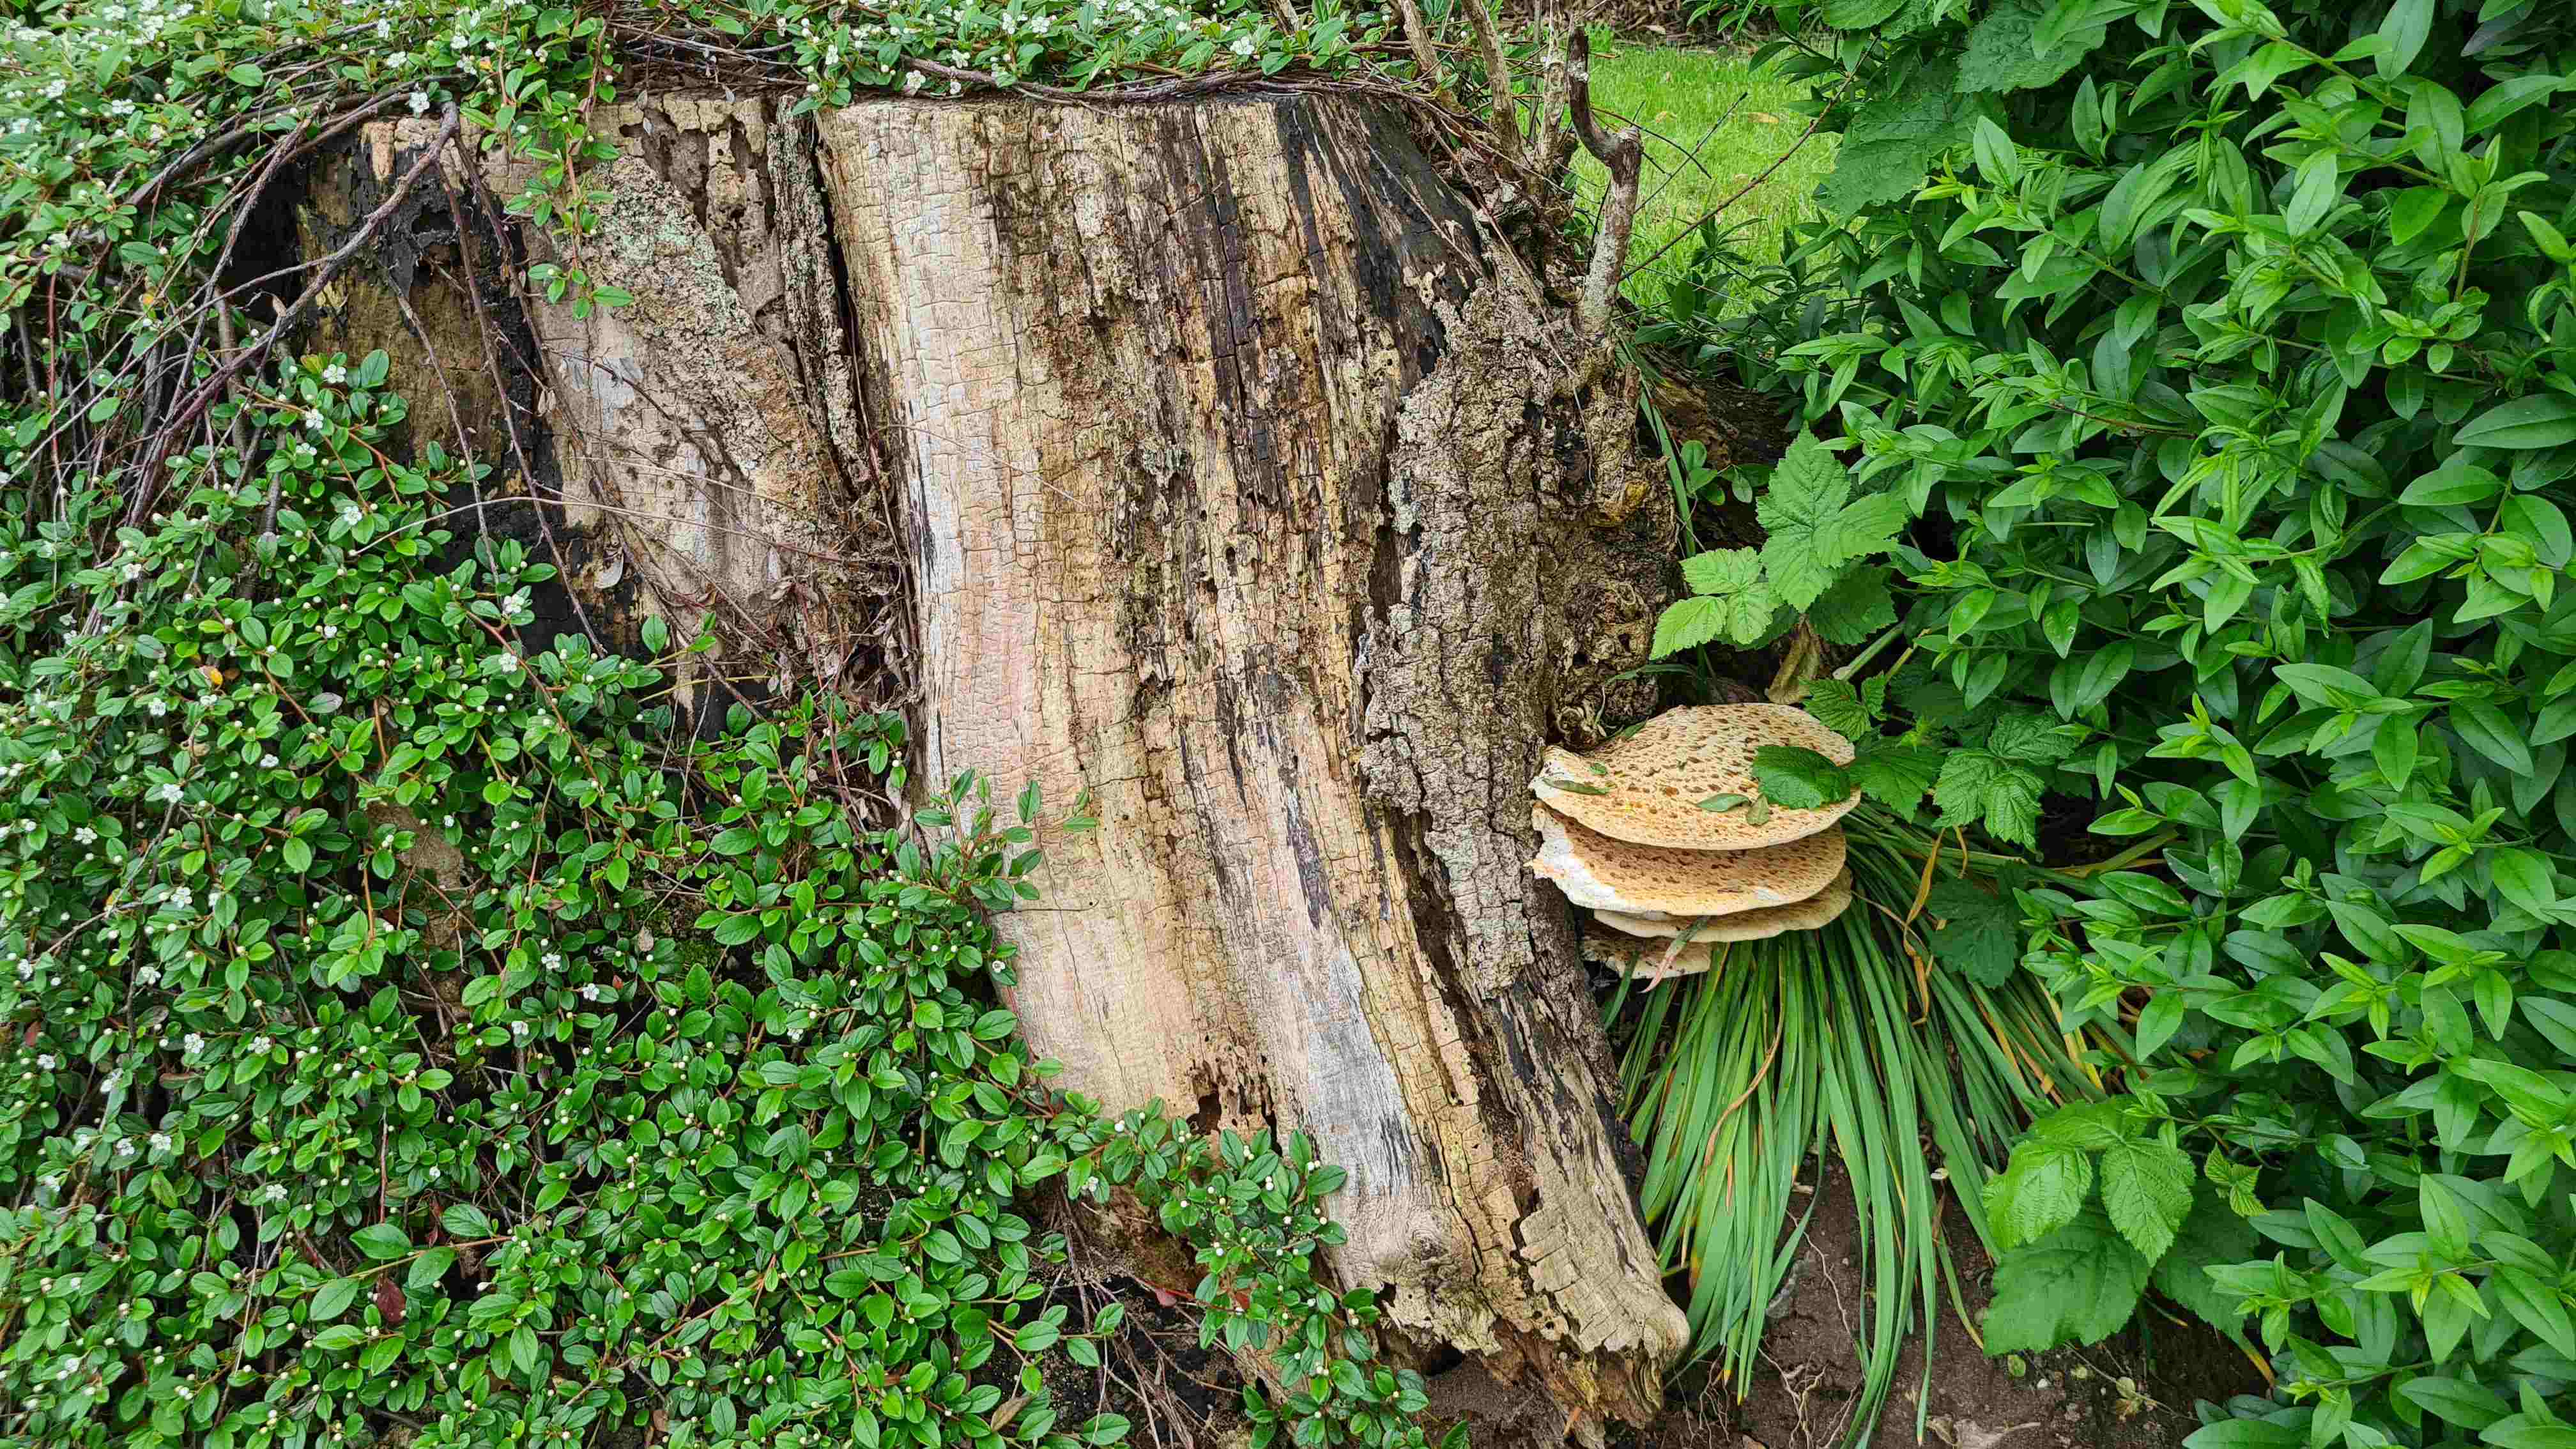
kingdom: Fungi
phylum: Basidiomycota
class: Agaricomycetes
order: Polyporales
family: Polyporaceae
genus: Cerioporus
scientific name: Cerioporus squamosus
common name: skællet stilkporesvamp
